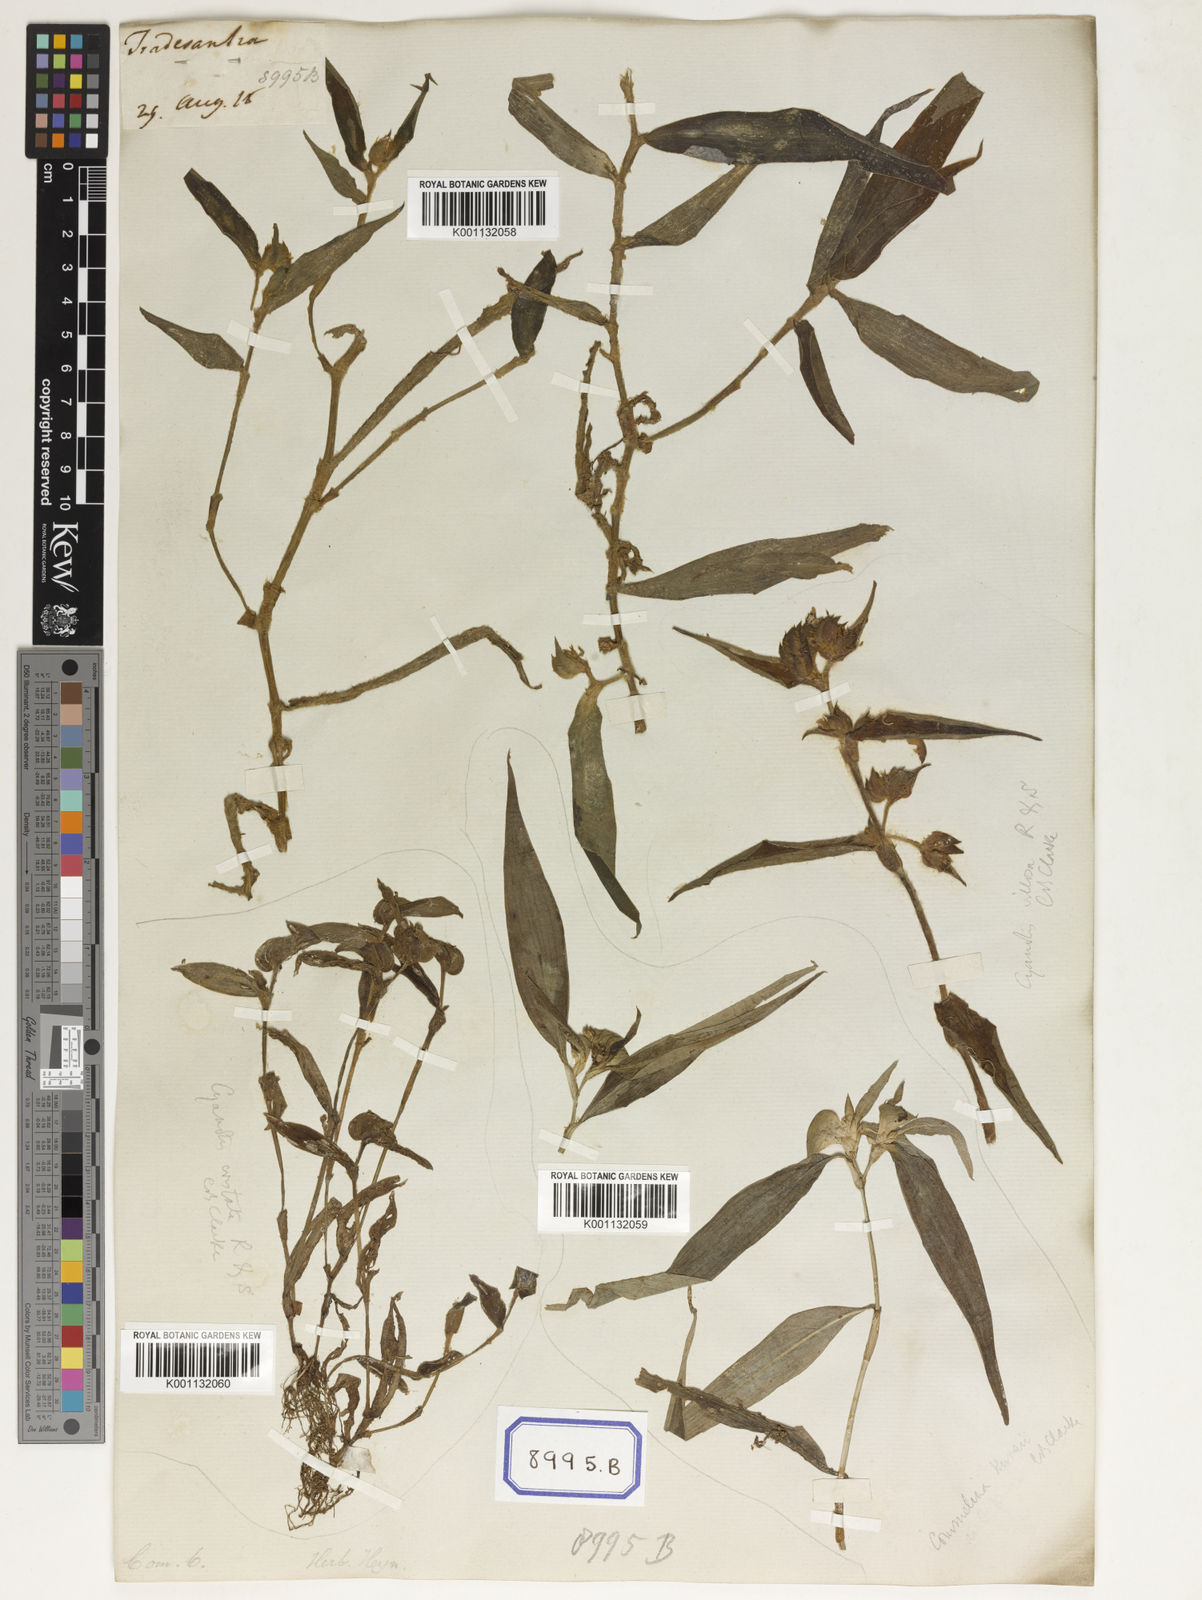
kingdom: Plantae
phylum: Tracheophyta
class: Liliopsida
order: Commelinales
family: Commelinaceae
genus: Cyanotis
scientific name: Cyanotis villosa
